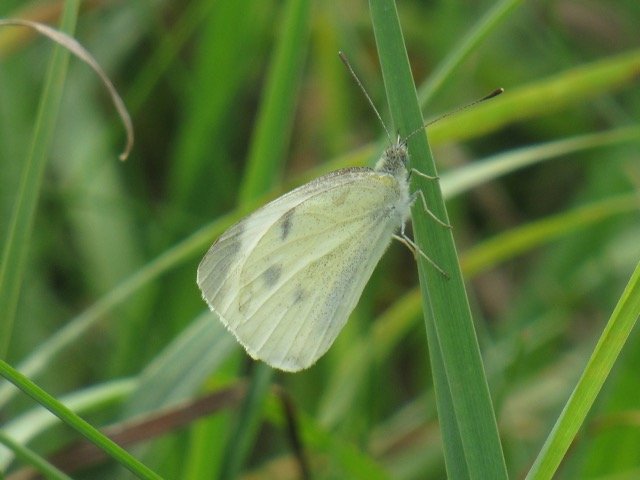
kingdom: Animalia
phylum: Arthropoda
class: Insecta
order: Lepidoptera
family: Pieridae
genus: Pieris
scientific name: Pieris rapae
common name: Cabbage White
